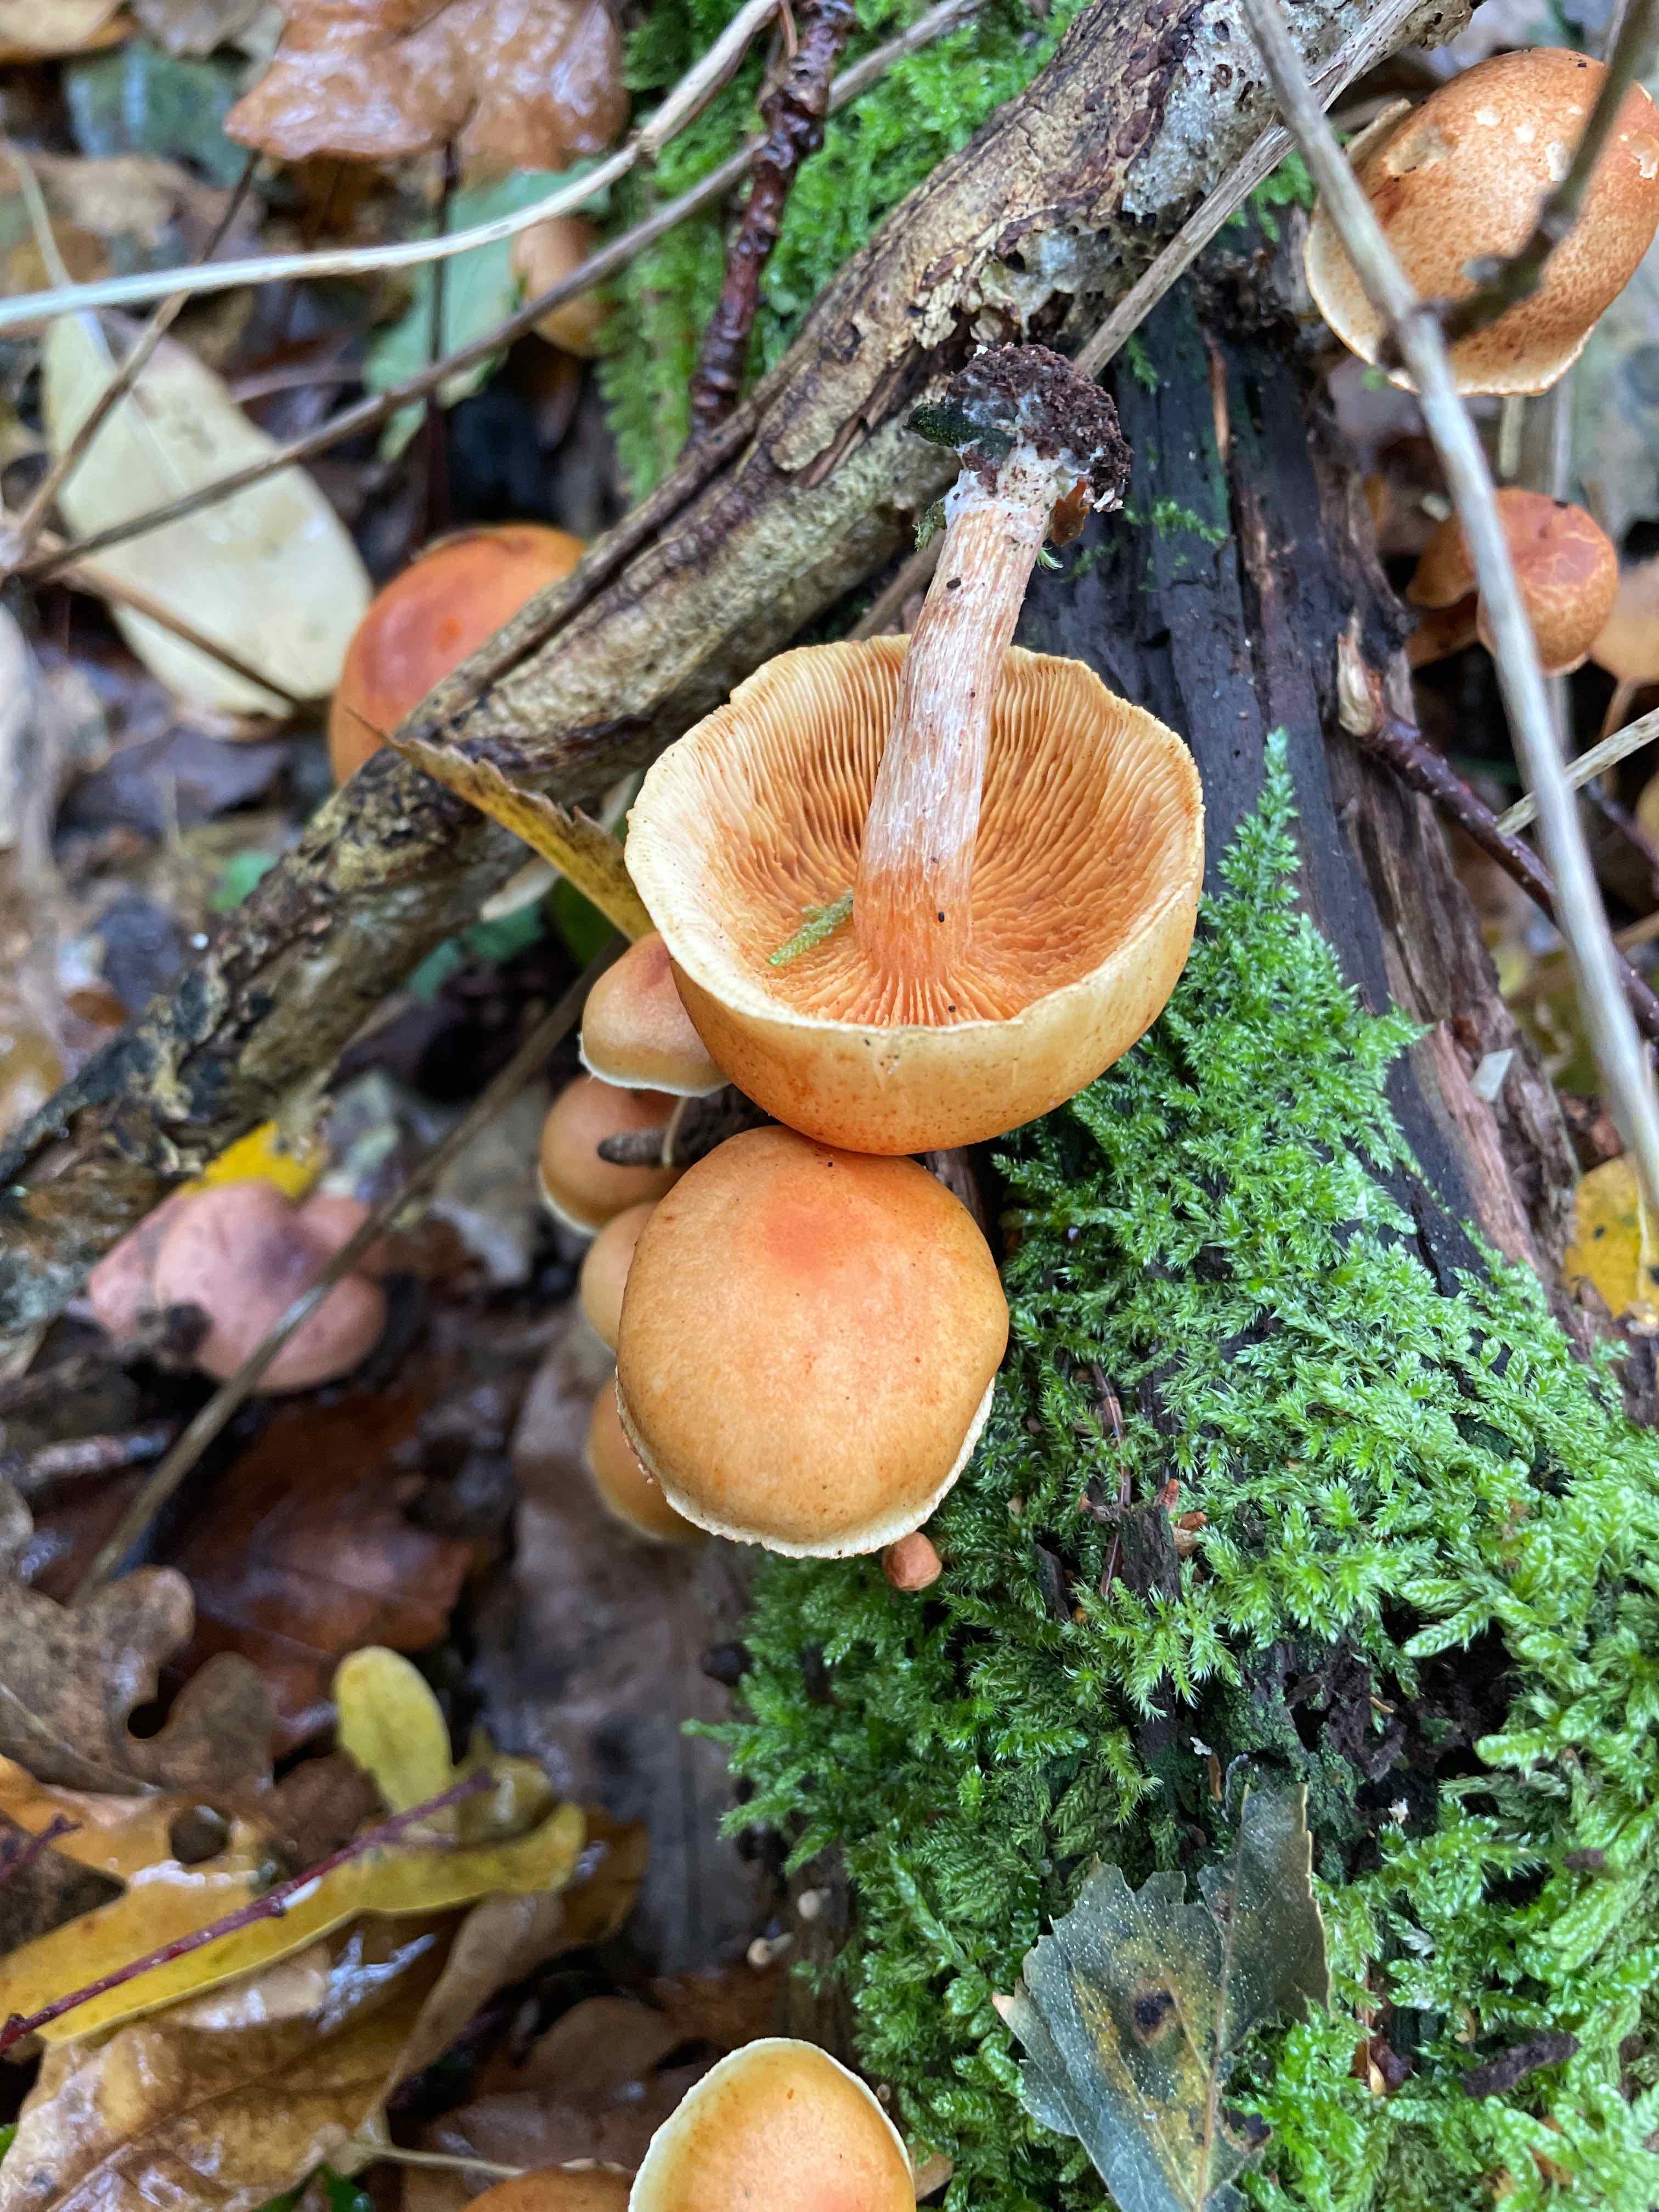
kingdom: Fungi
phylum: Basidiomycota
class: Agaricomycetes
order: Agaricales
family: Hymenogastraceae
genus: Gymnopilus
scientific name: Gymnopilus penetrans
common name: plettet flammehat
